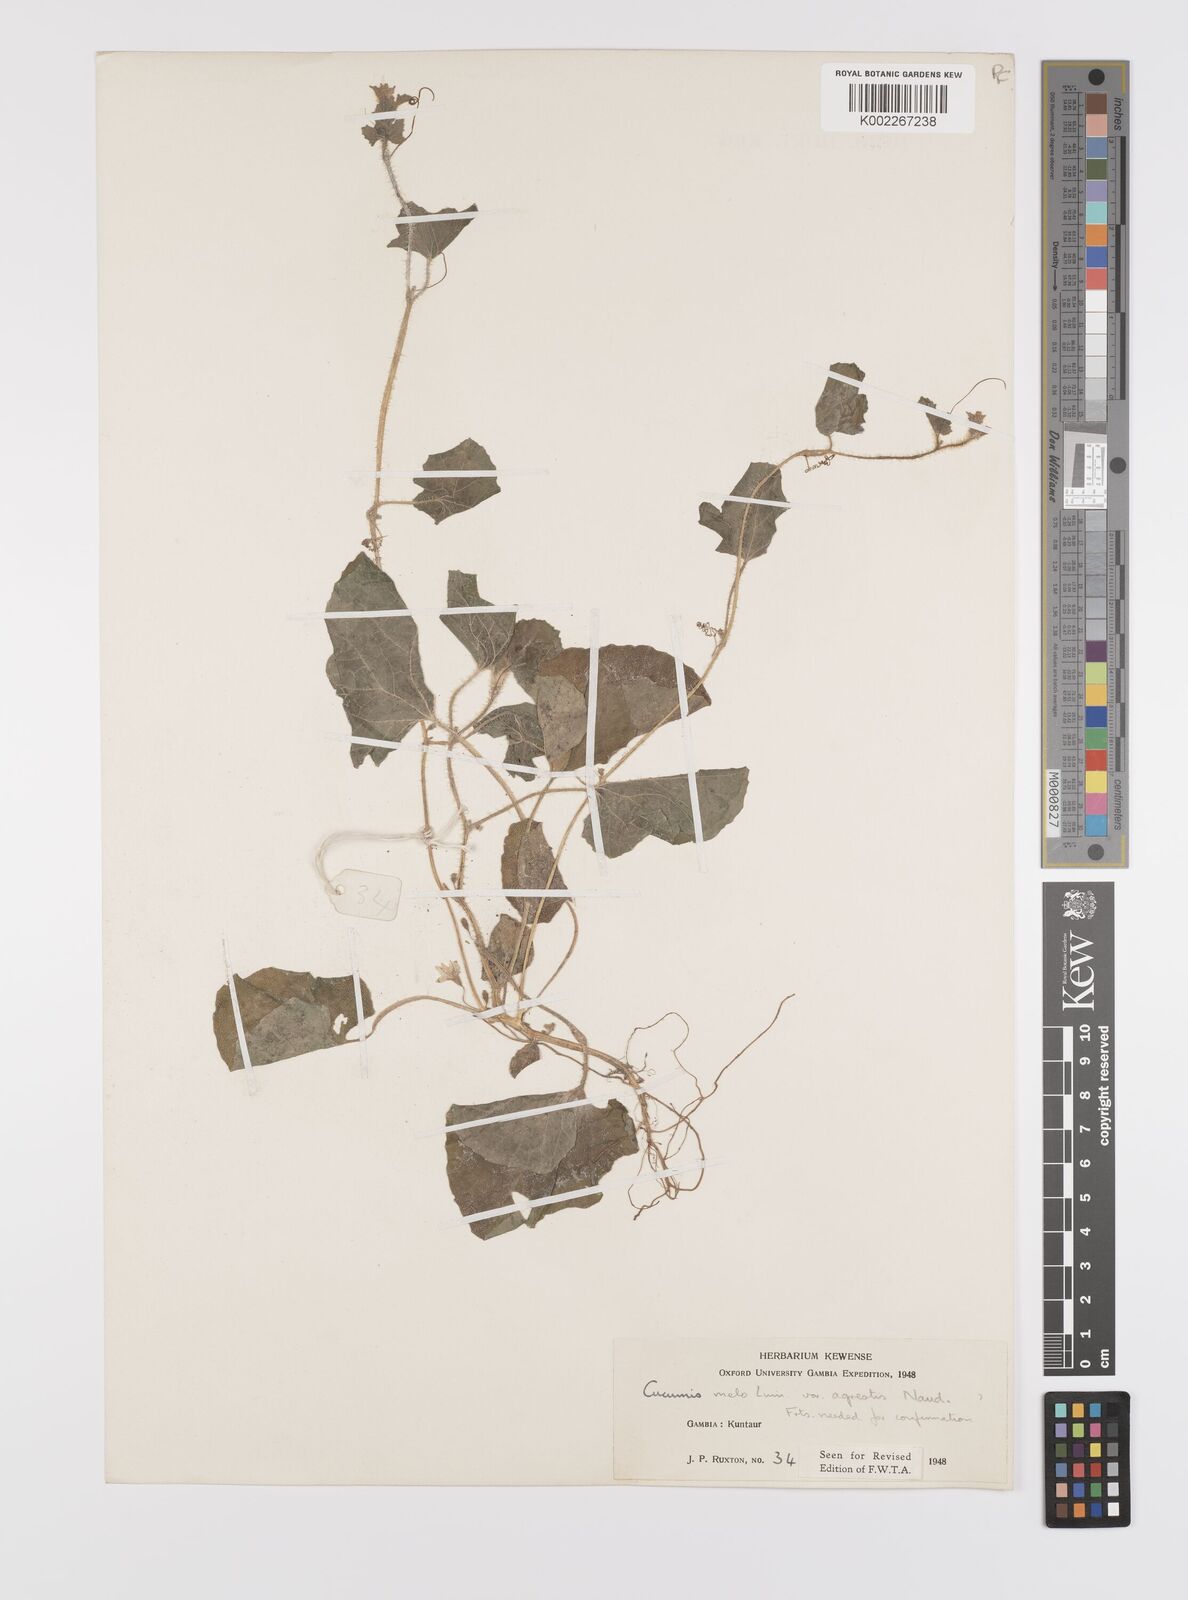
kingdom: Plantae
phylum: Tracheophyta
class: Magnoliopsida
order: Cucurbitales
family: Cucurbitaceae
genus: Cucumis
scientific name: Cucumis melo
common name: Melon
